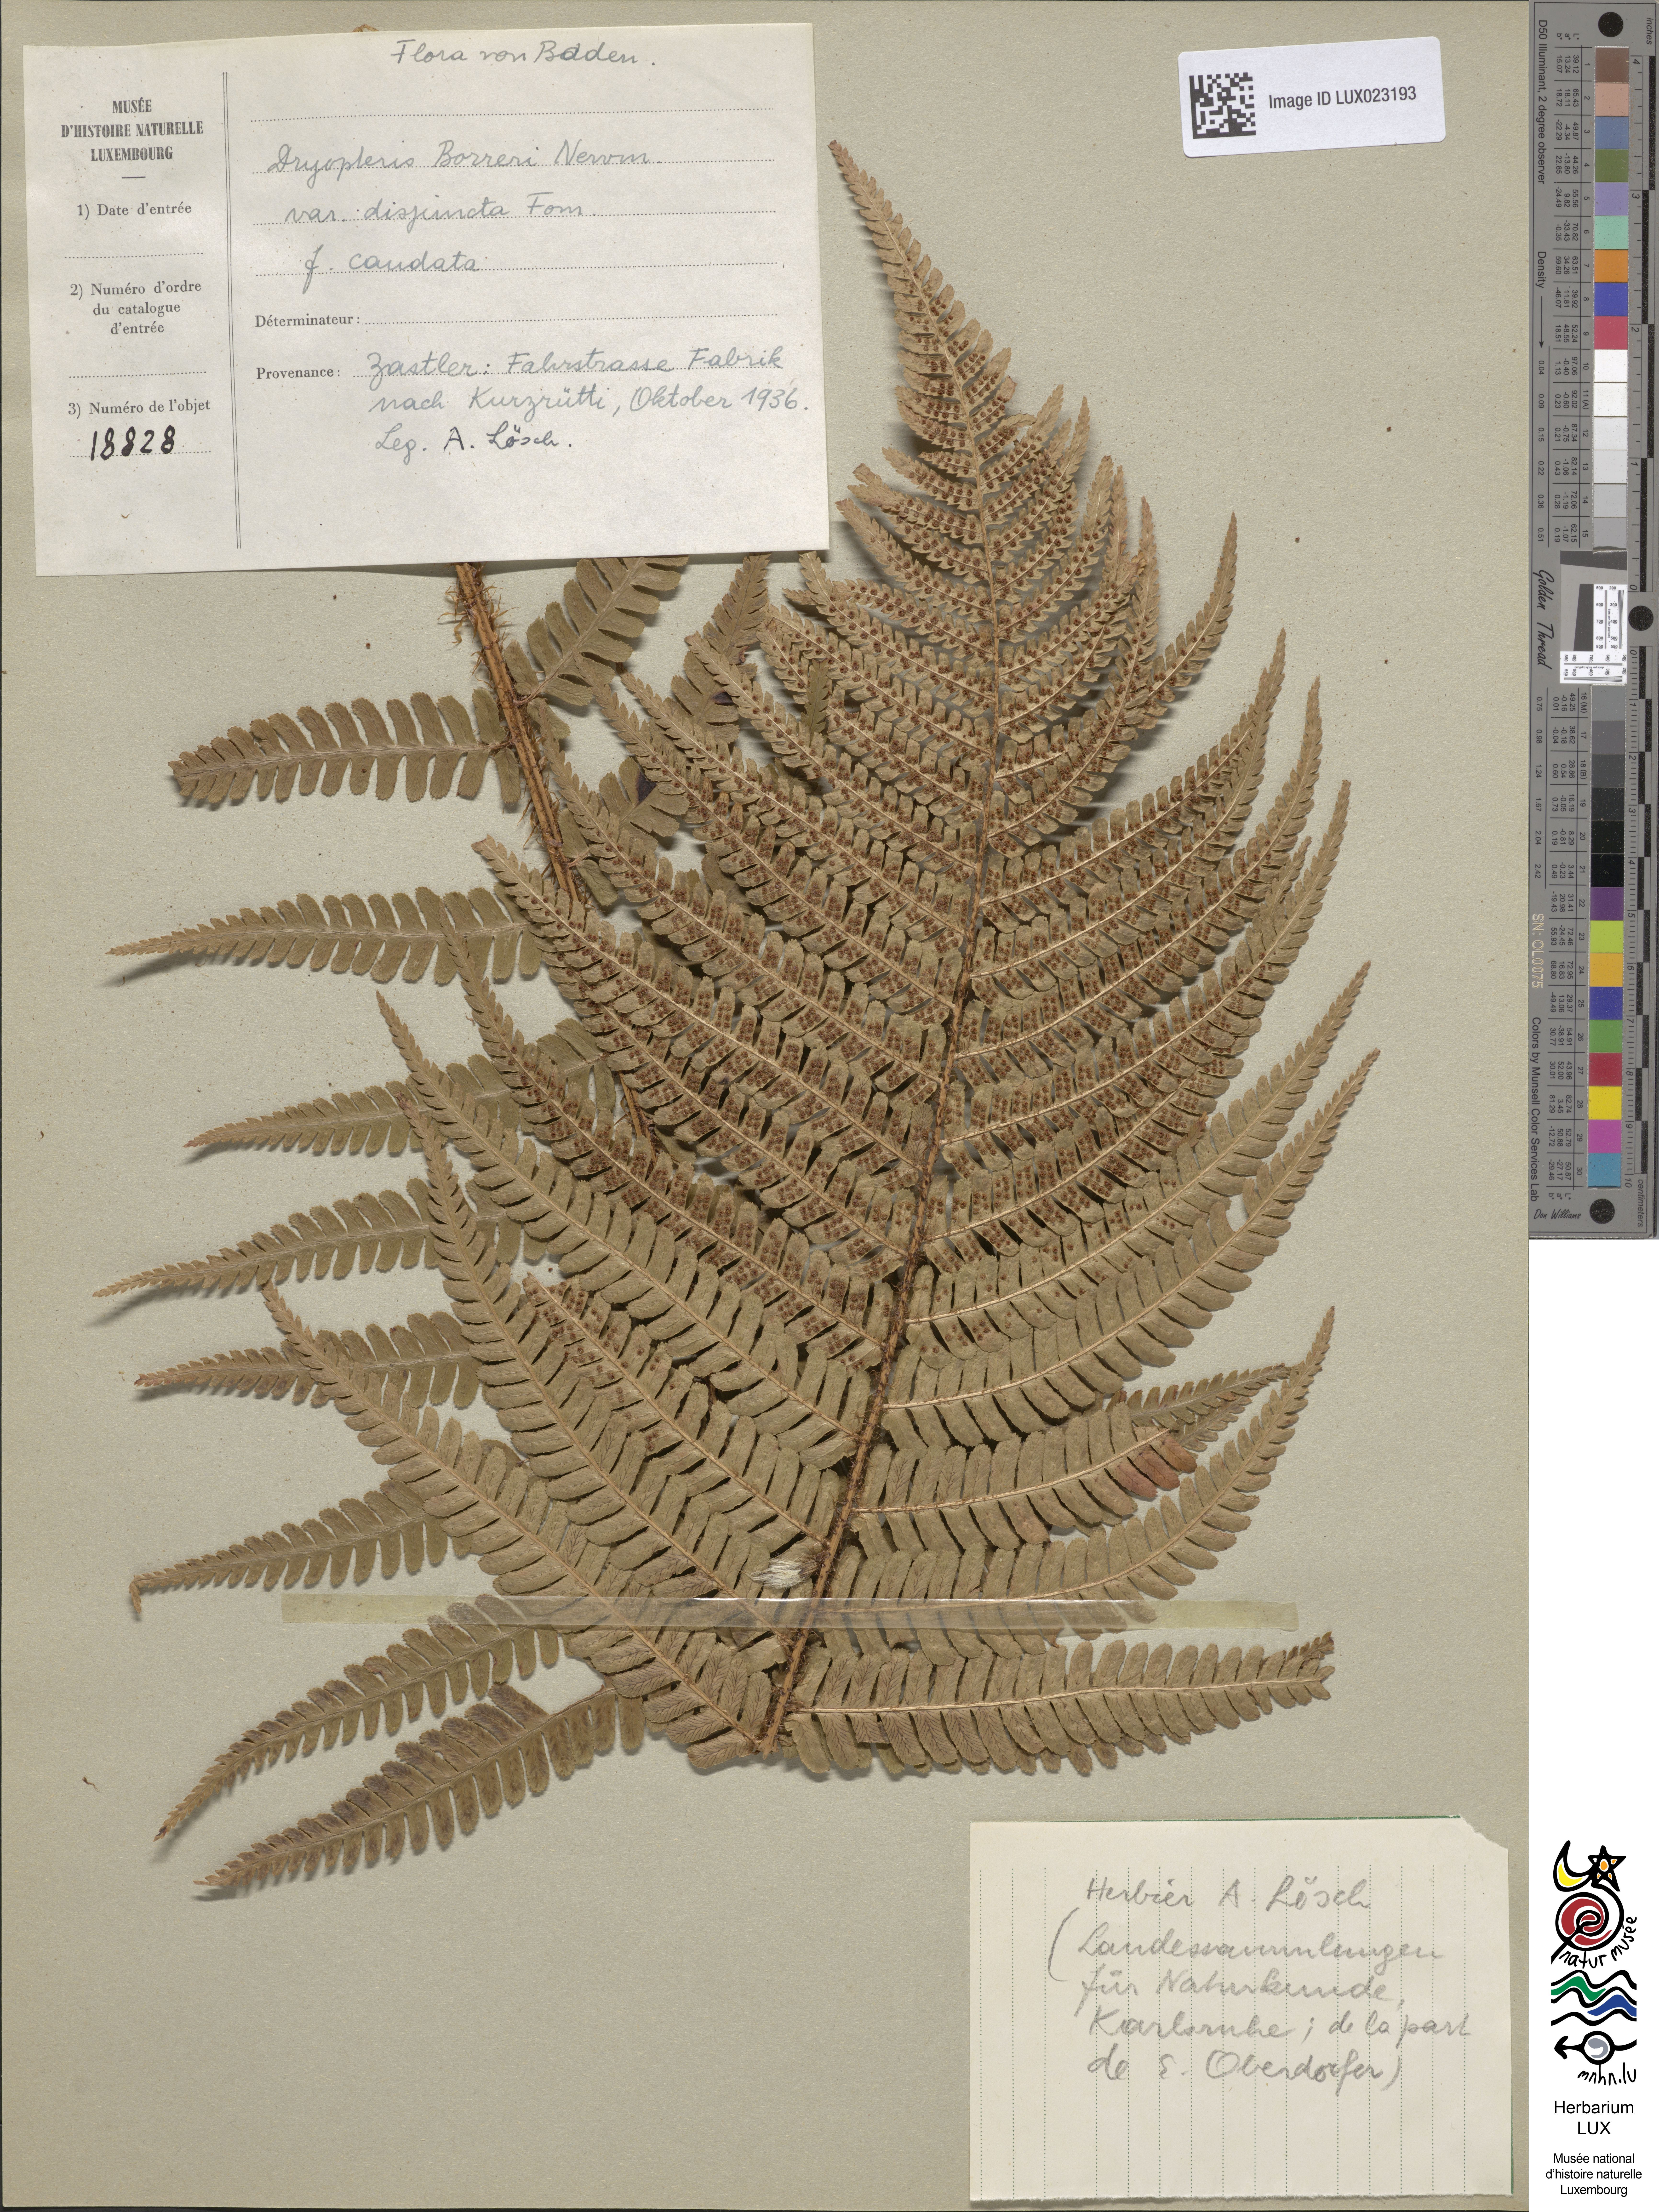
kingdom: Plantae
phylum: Tracheophyta
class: Polypodiopsida
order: Polypodiales
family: Dryopteridaceae
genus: Dryopteris
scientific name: Dryopteris affinis
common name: Scaly male fern
